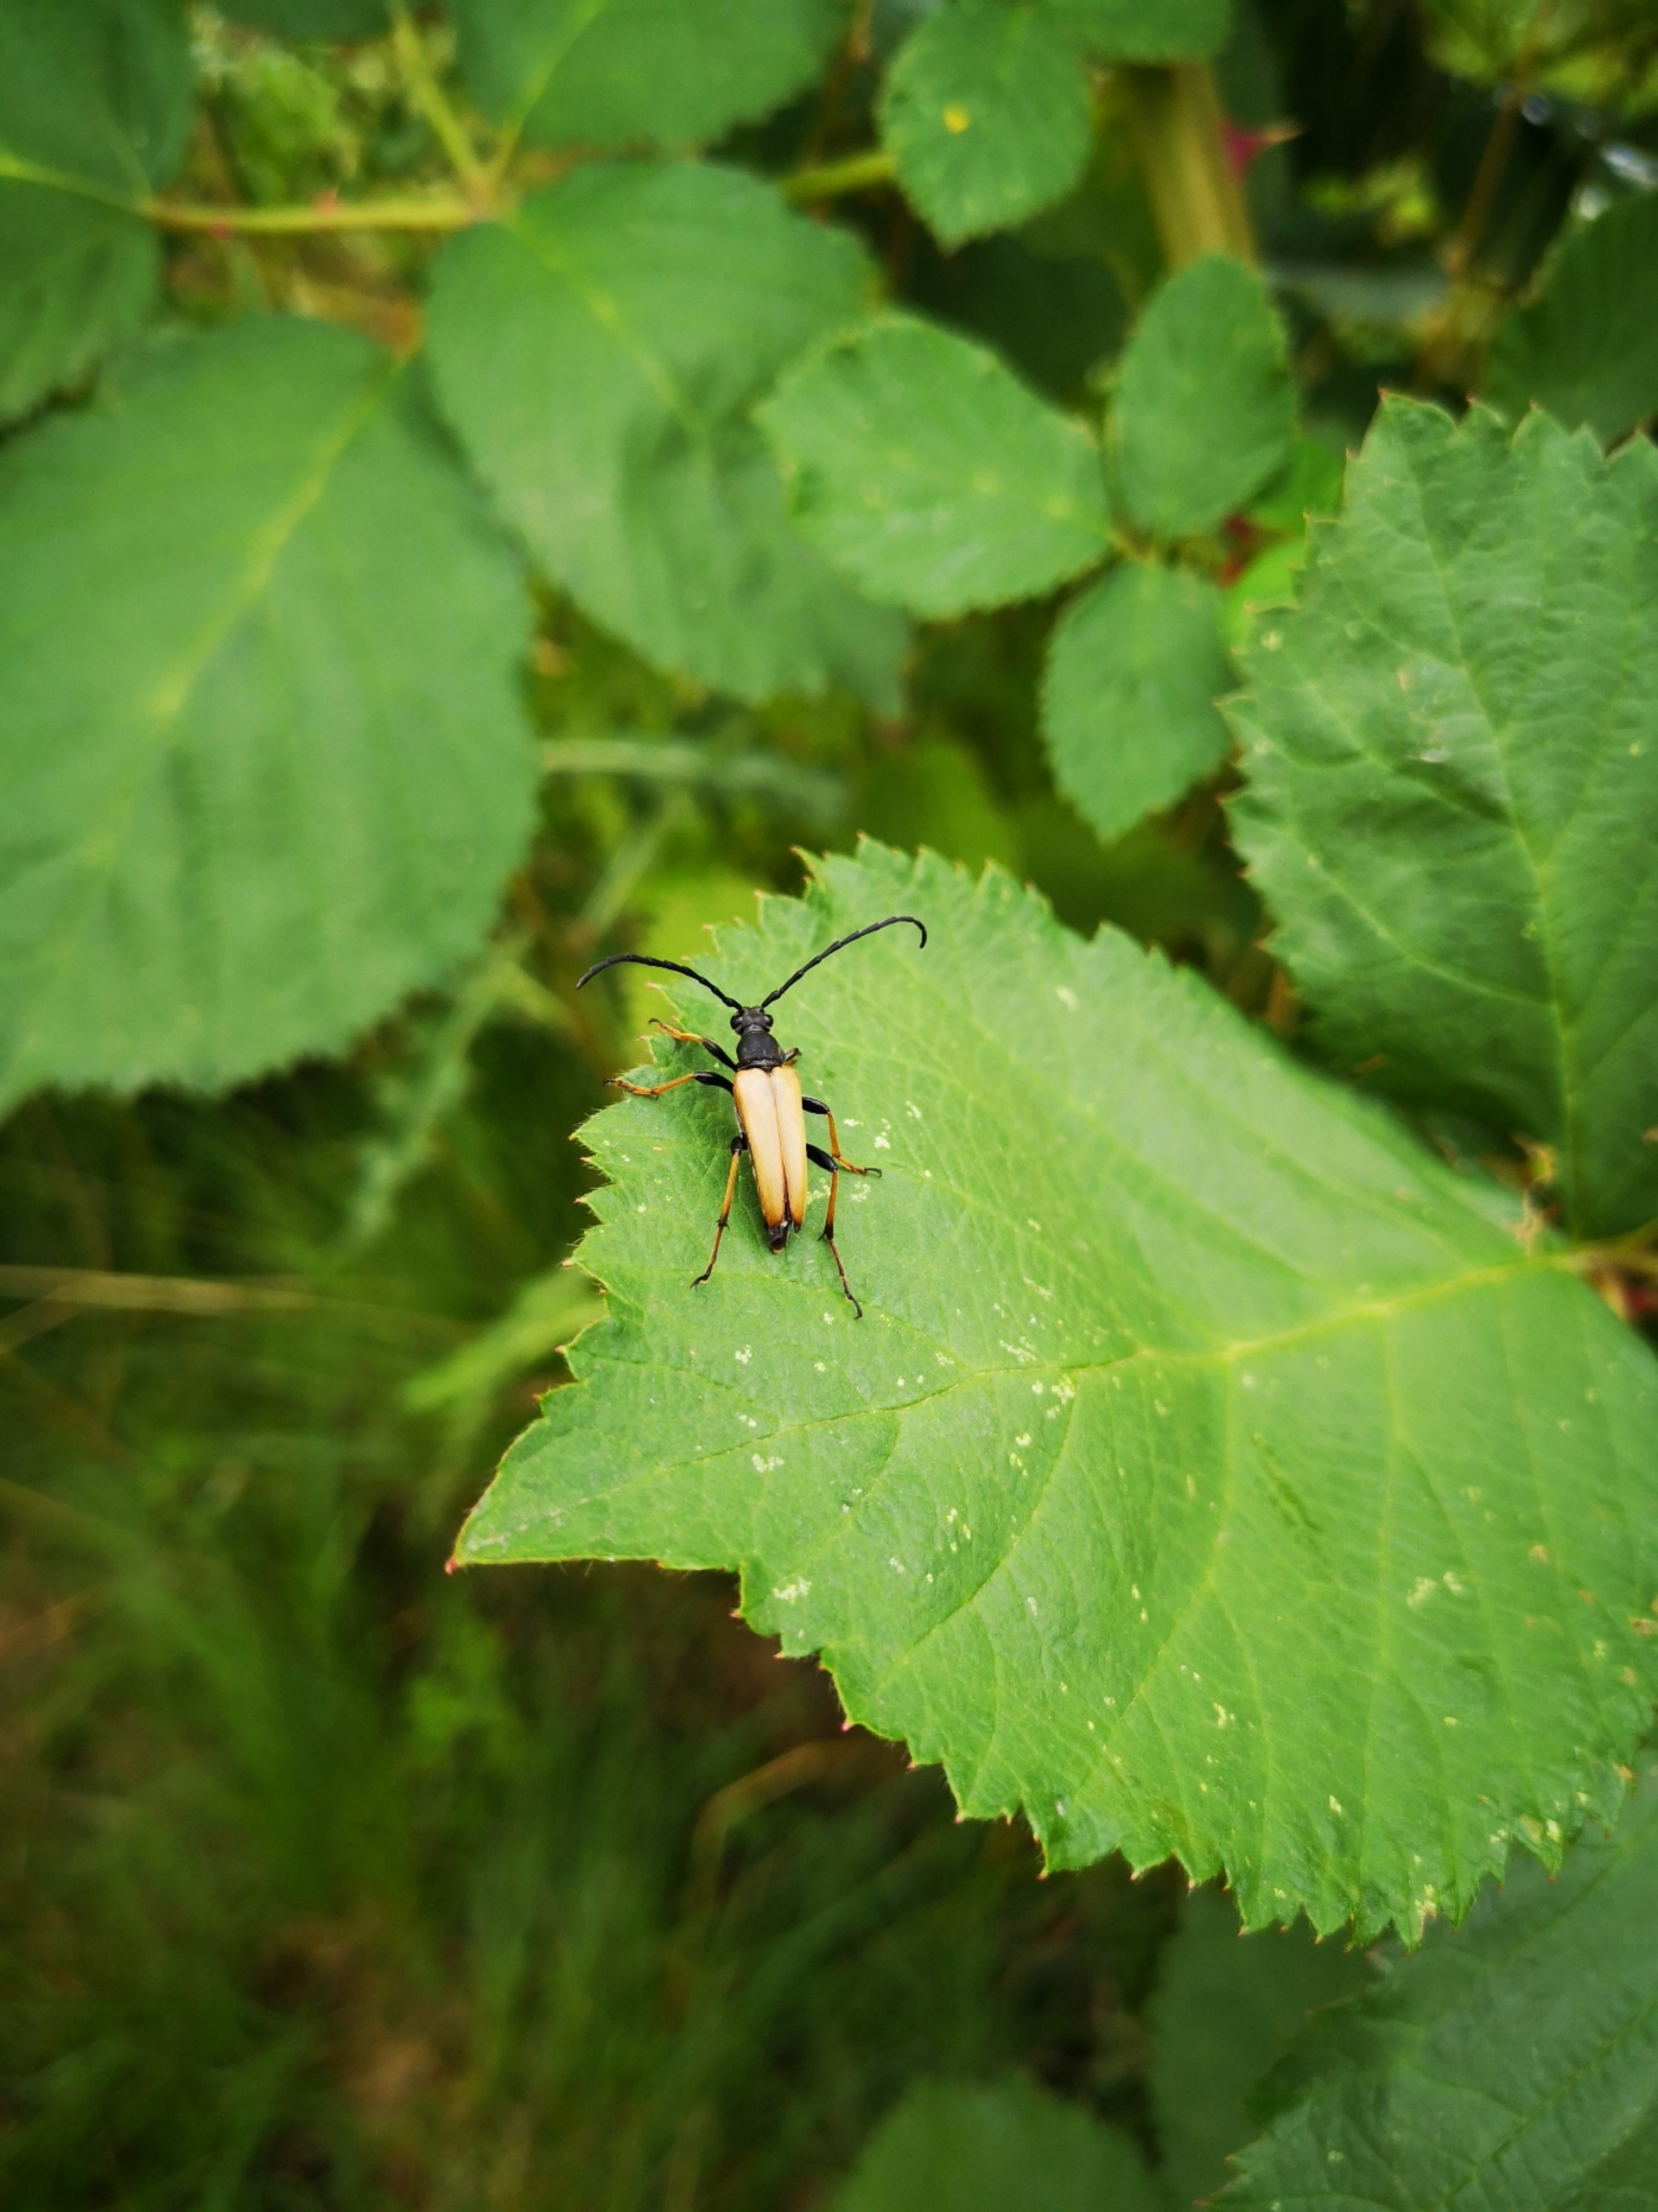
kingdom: Animalia
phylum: Arthropoda
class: Insecta
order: Coleoptera
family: Cerambycidae
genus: Stictoleptura
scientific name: Stictoleptura rubra
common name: Rød blomsterbuk
